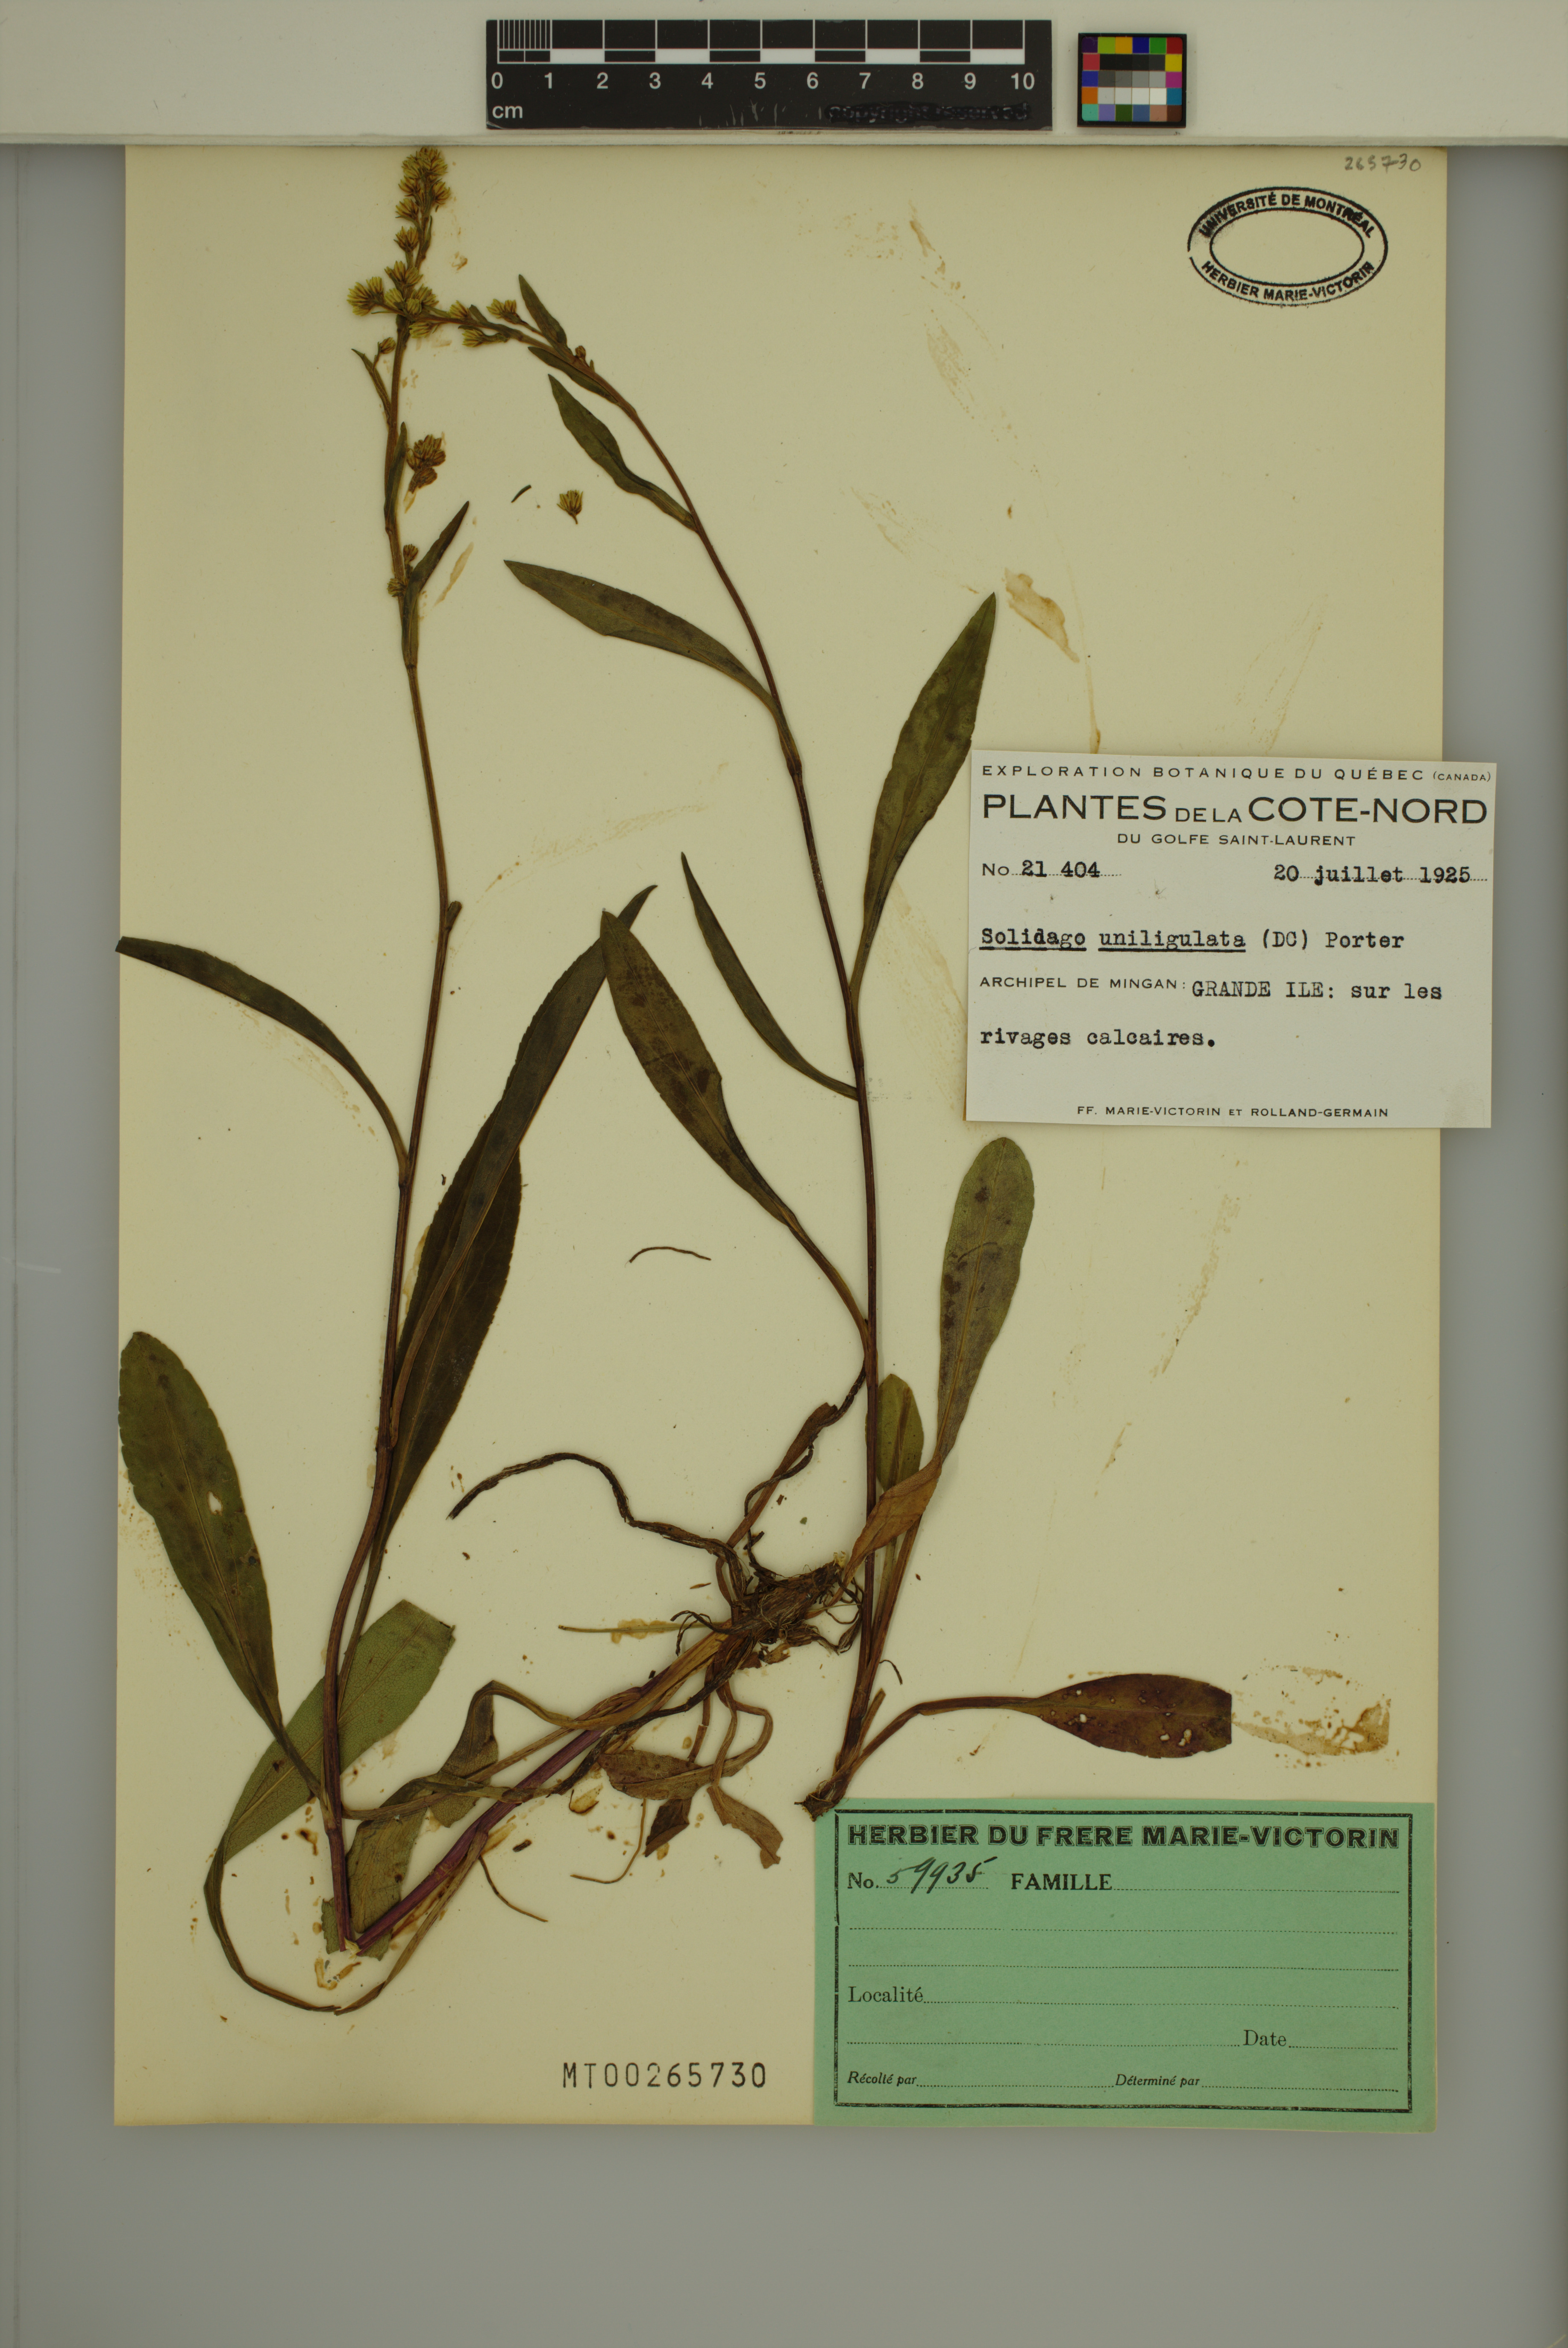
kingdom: Plantae
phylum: Tracheophyta
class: Magnoliopsida
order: Asterales
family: Asteraceae
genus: Solidago
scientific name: Solidago uliginosa
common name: Bog goldenrod
